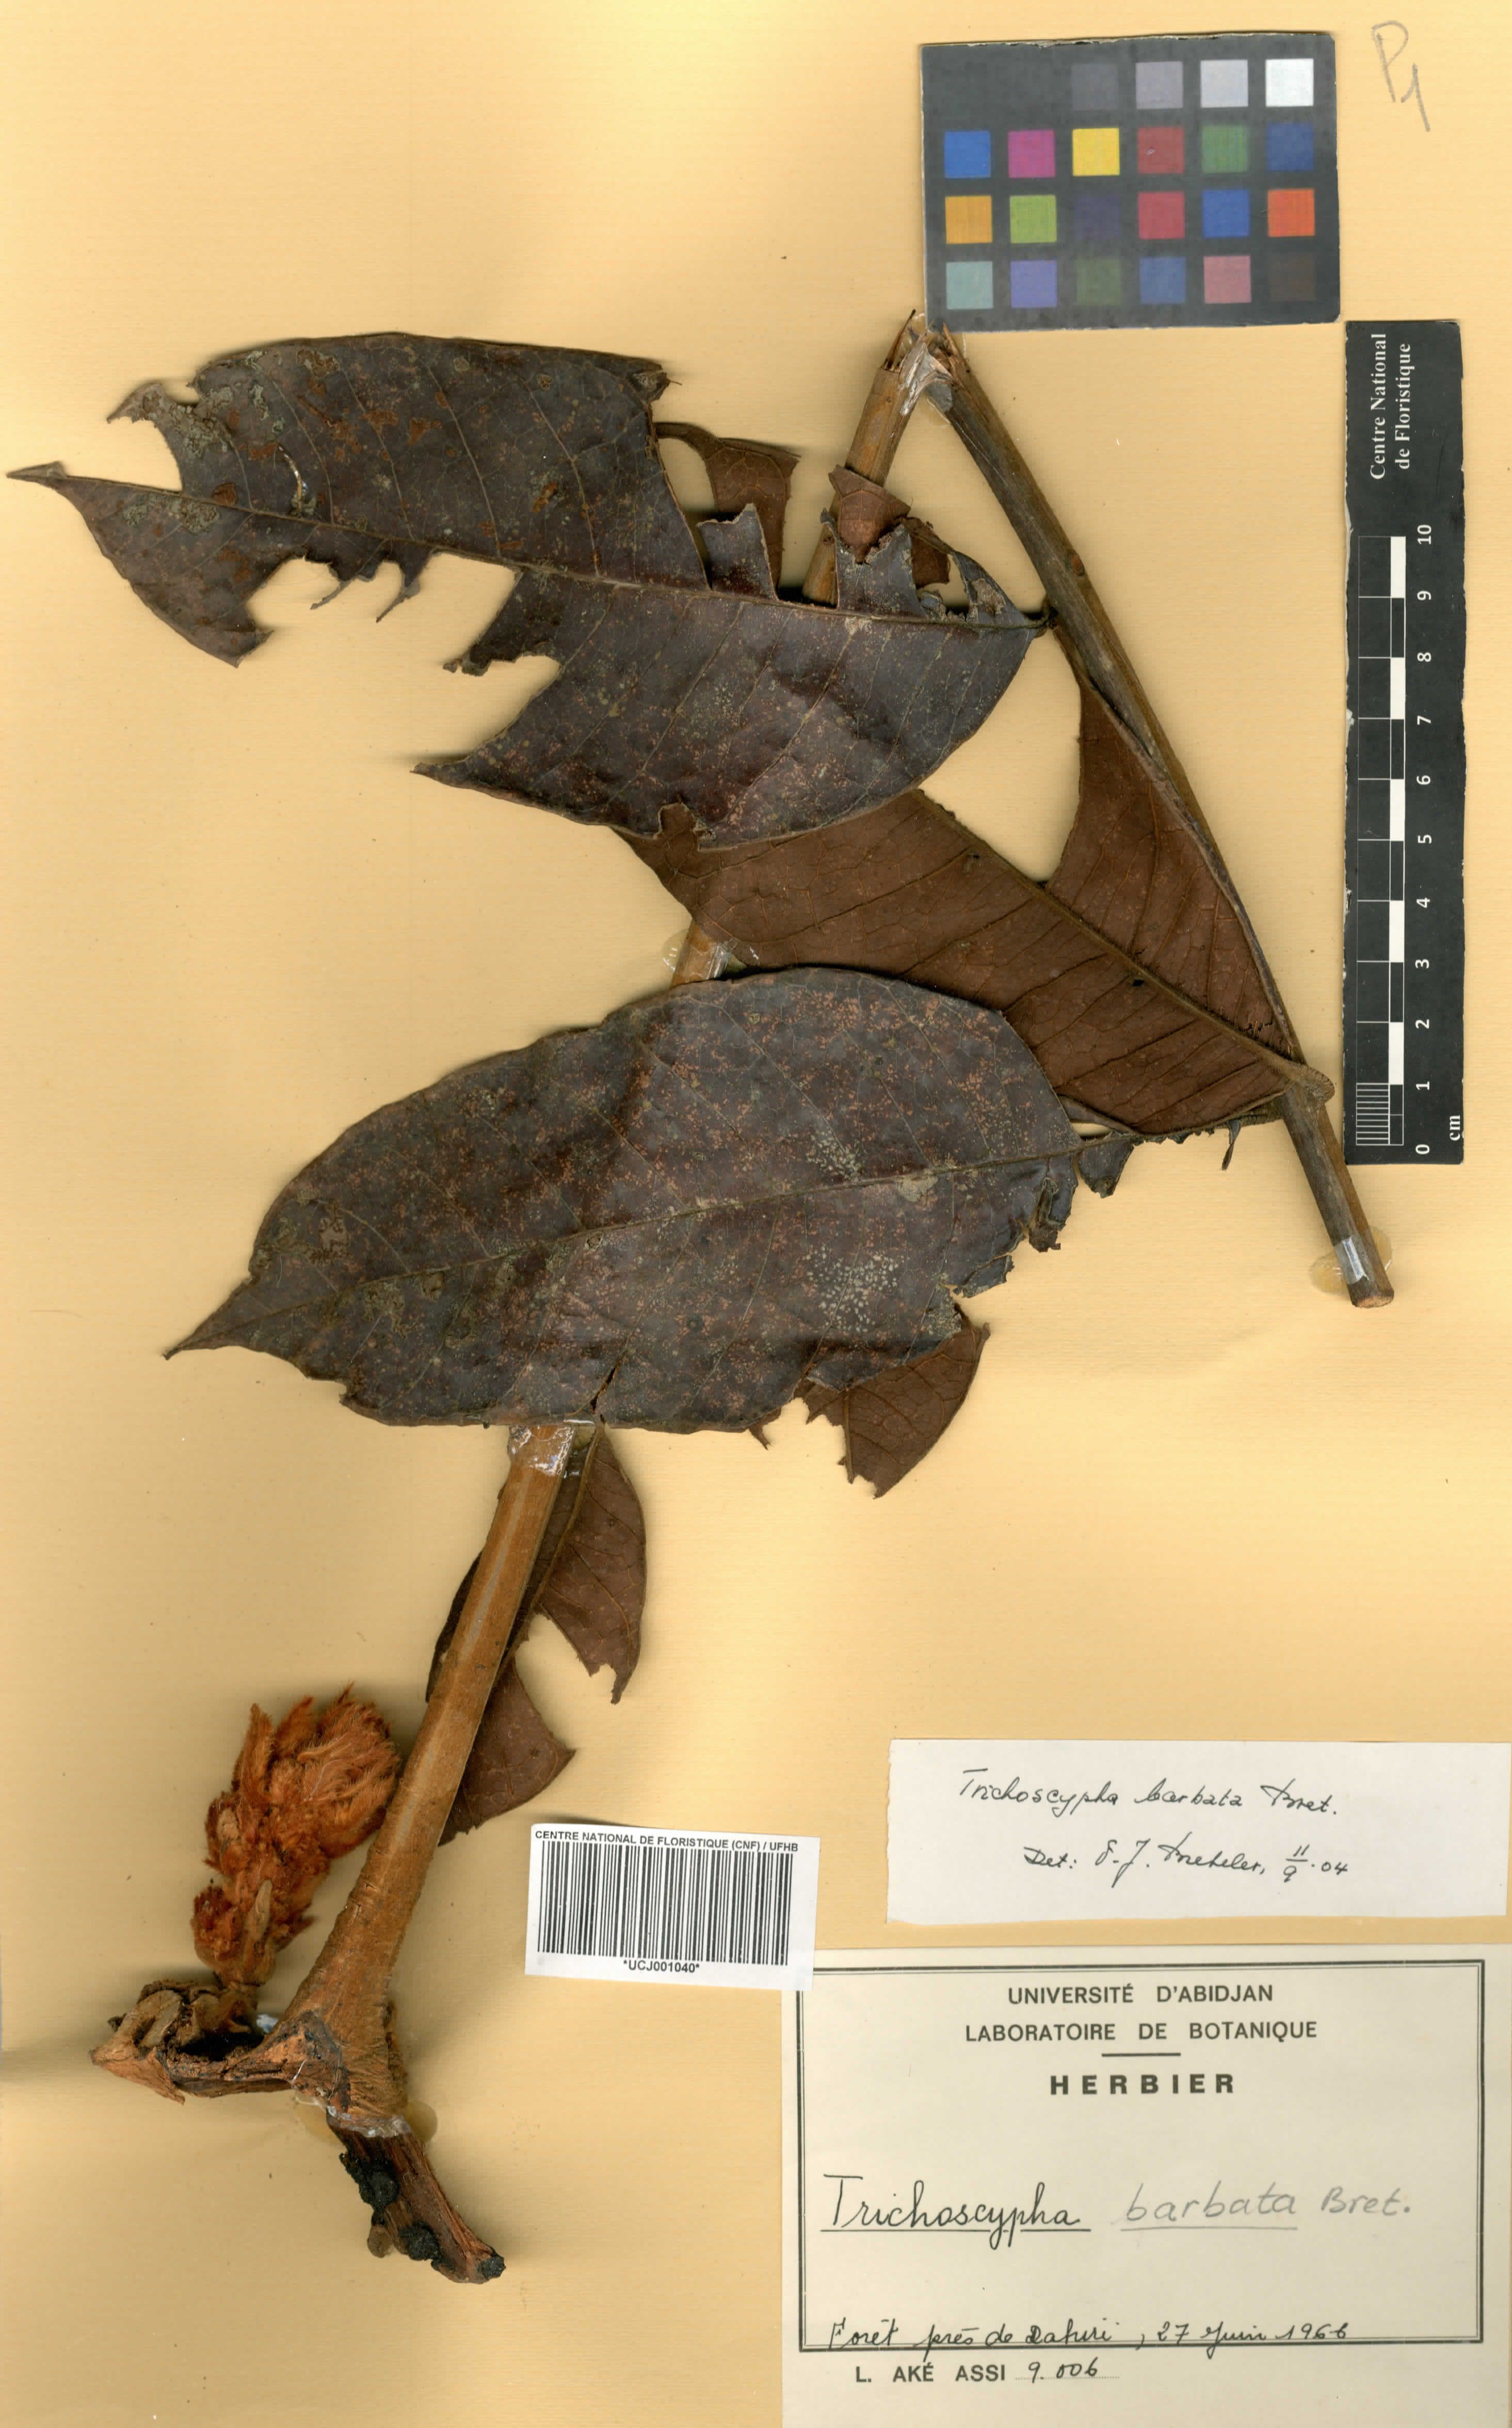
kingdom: Plantae
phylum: Tracheophyta
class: Magnoliopsida
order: Sapindales
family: Anacardiaceae
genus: Trichoscypha
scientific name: Trichoscypha barbata
